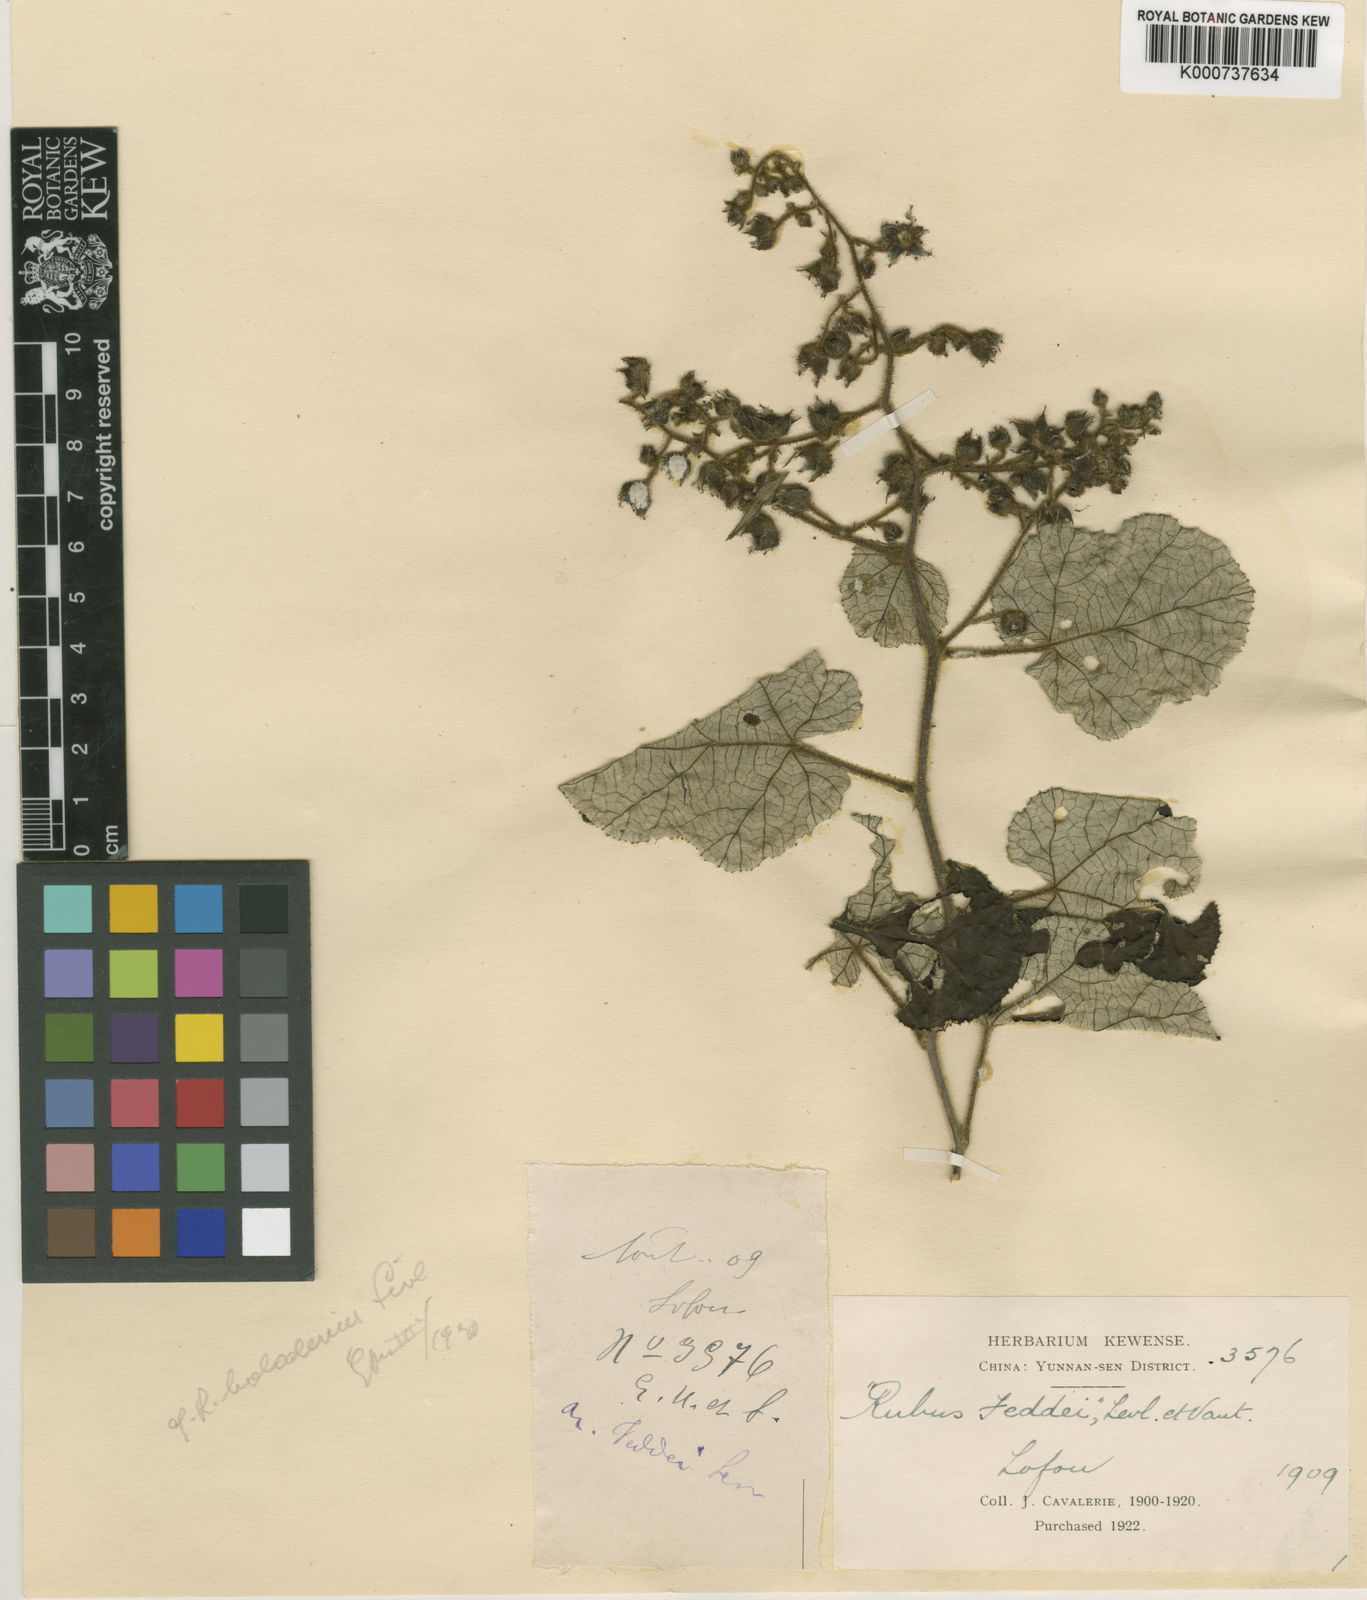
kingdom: Plantae
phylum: Tracheophyta
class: Magnoliopsida
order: Rosales
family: Rosaceae
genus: Rubus
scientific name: Rubus
